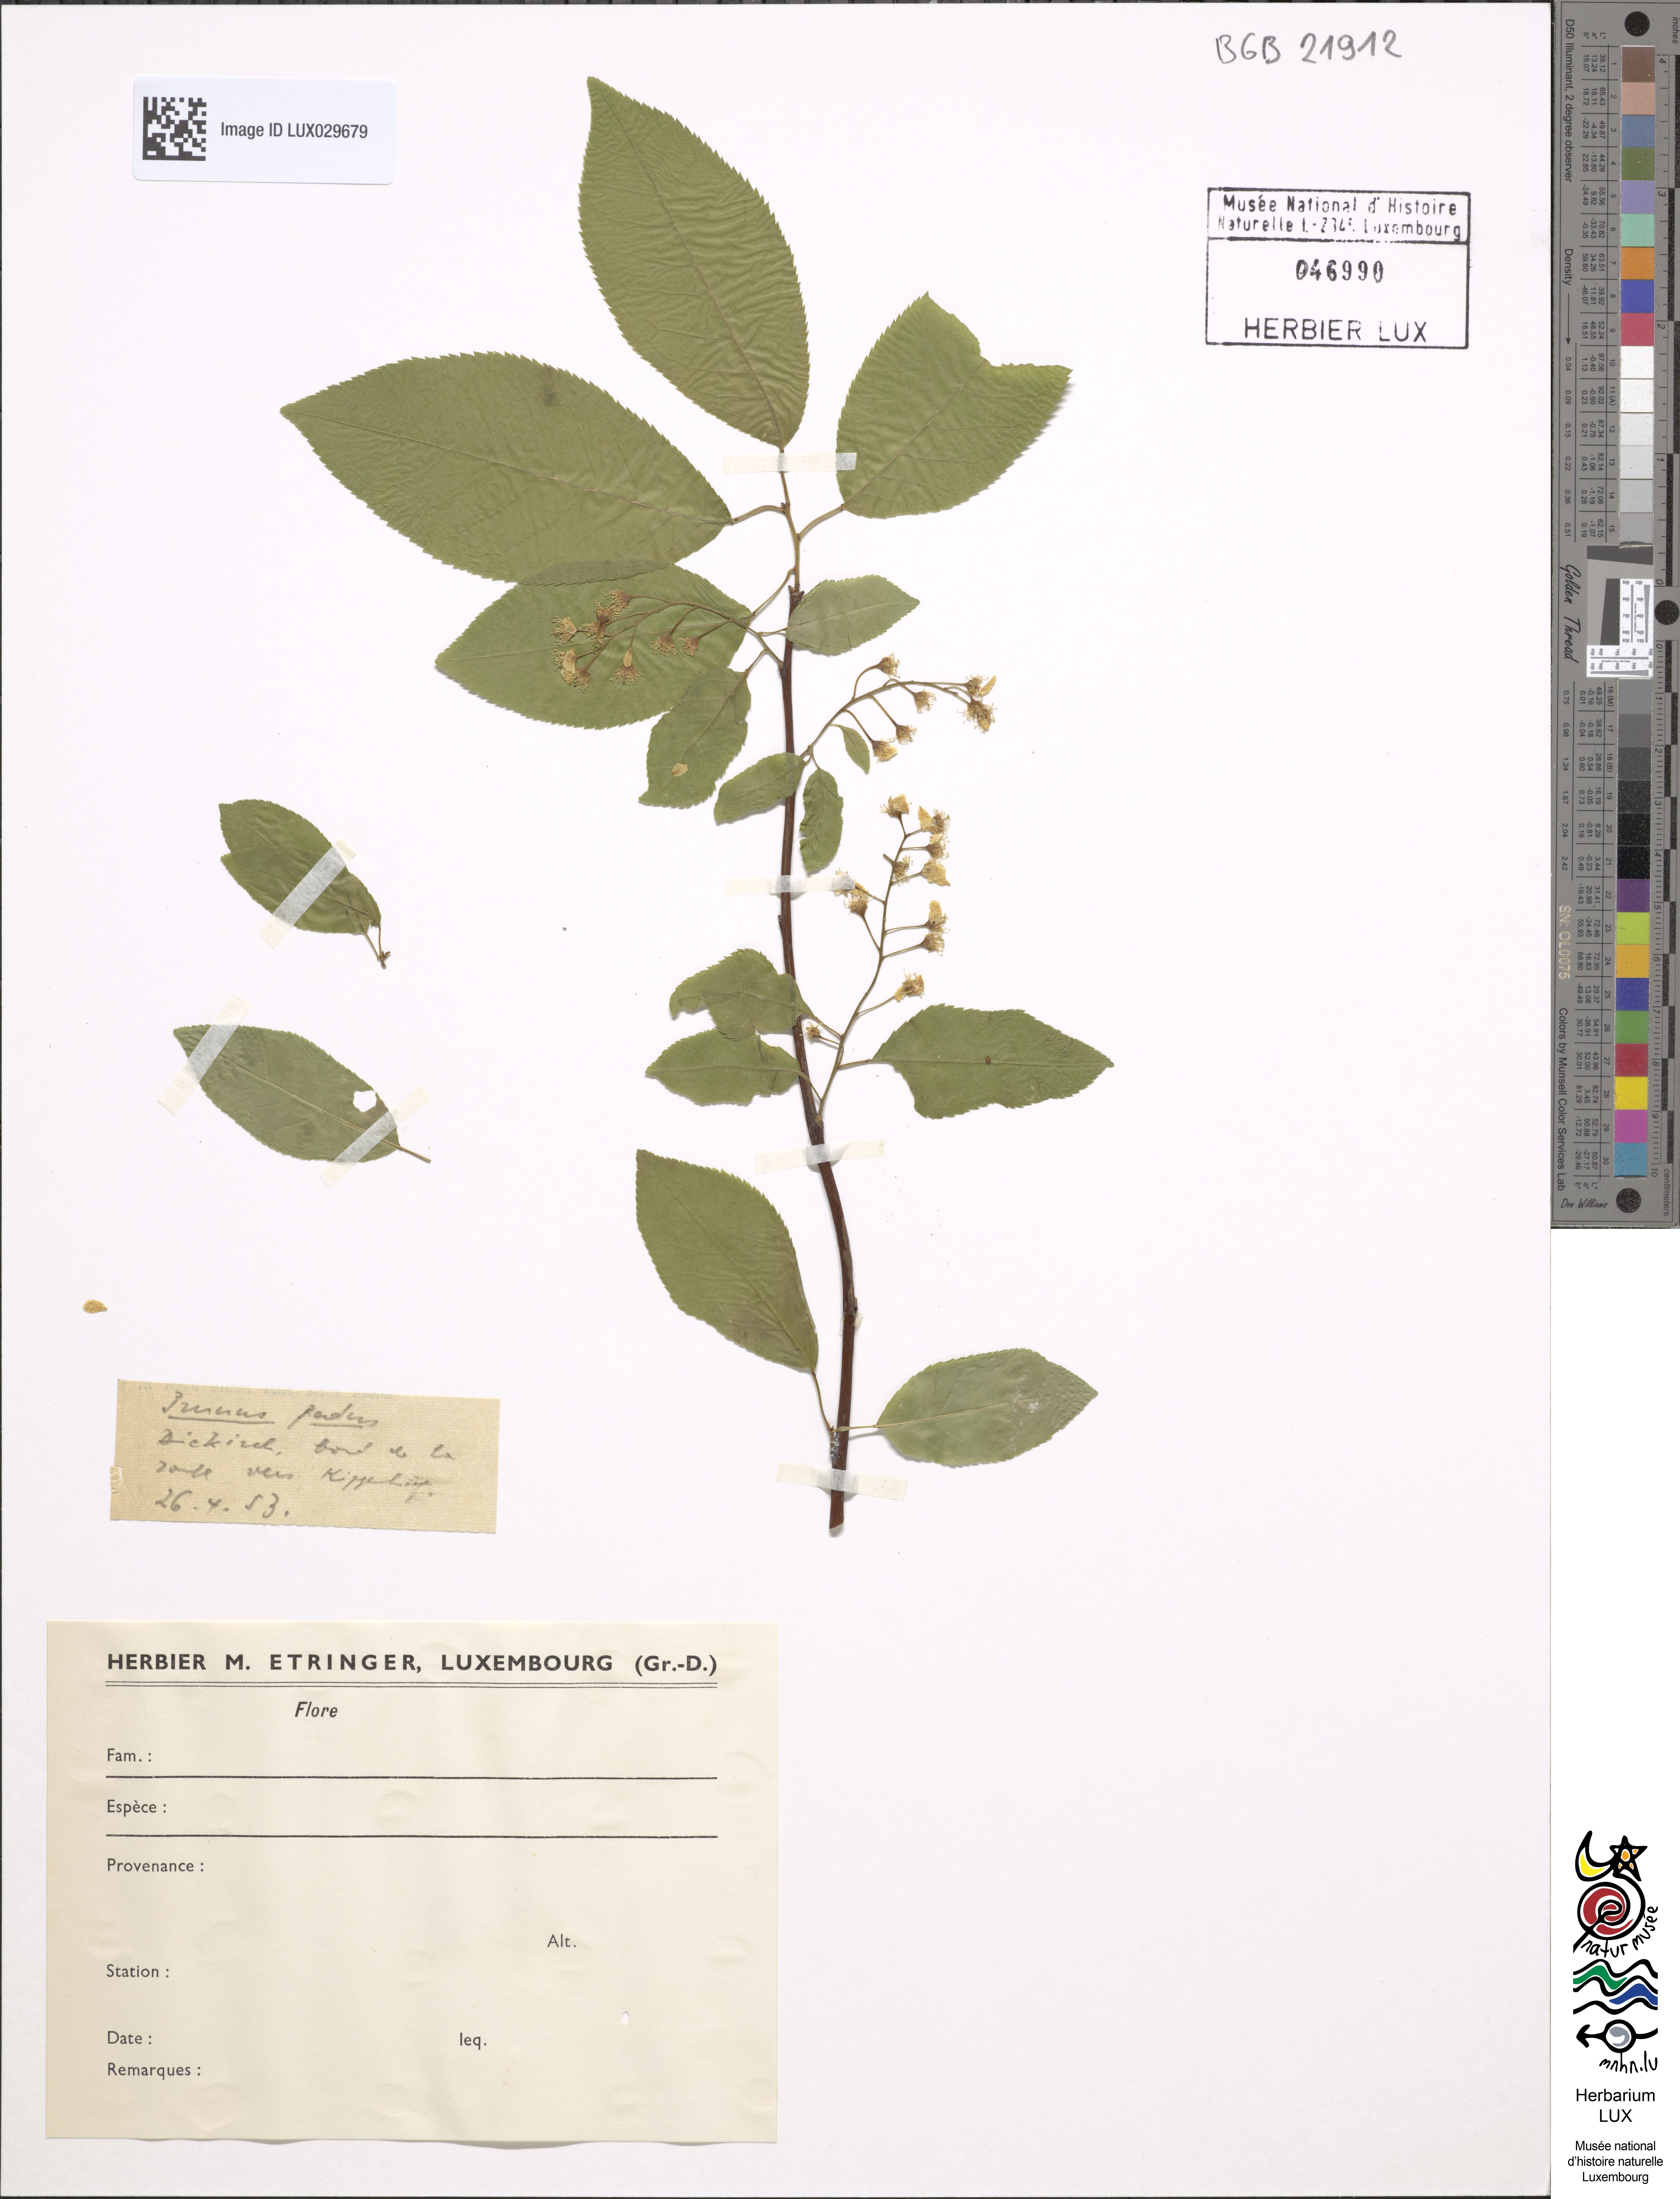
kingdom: Plantae
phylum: Tracheophyta
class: Magnoliopsida
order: Rosales
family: Rosaceae
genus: Prunus
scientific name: Prunus padus
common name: Bird cherry
